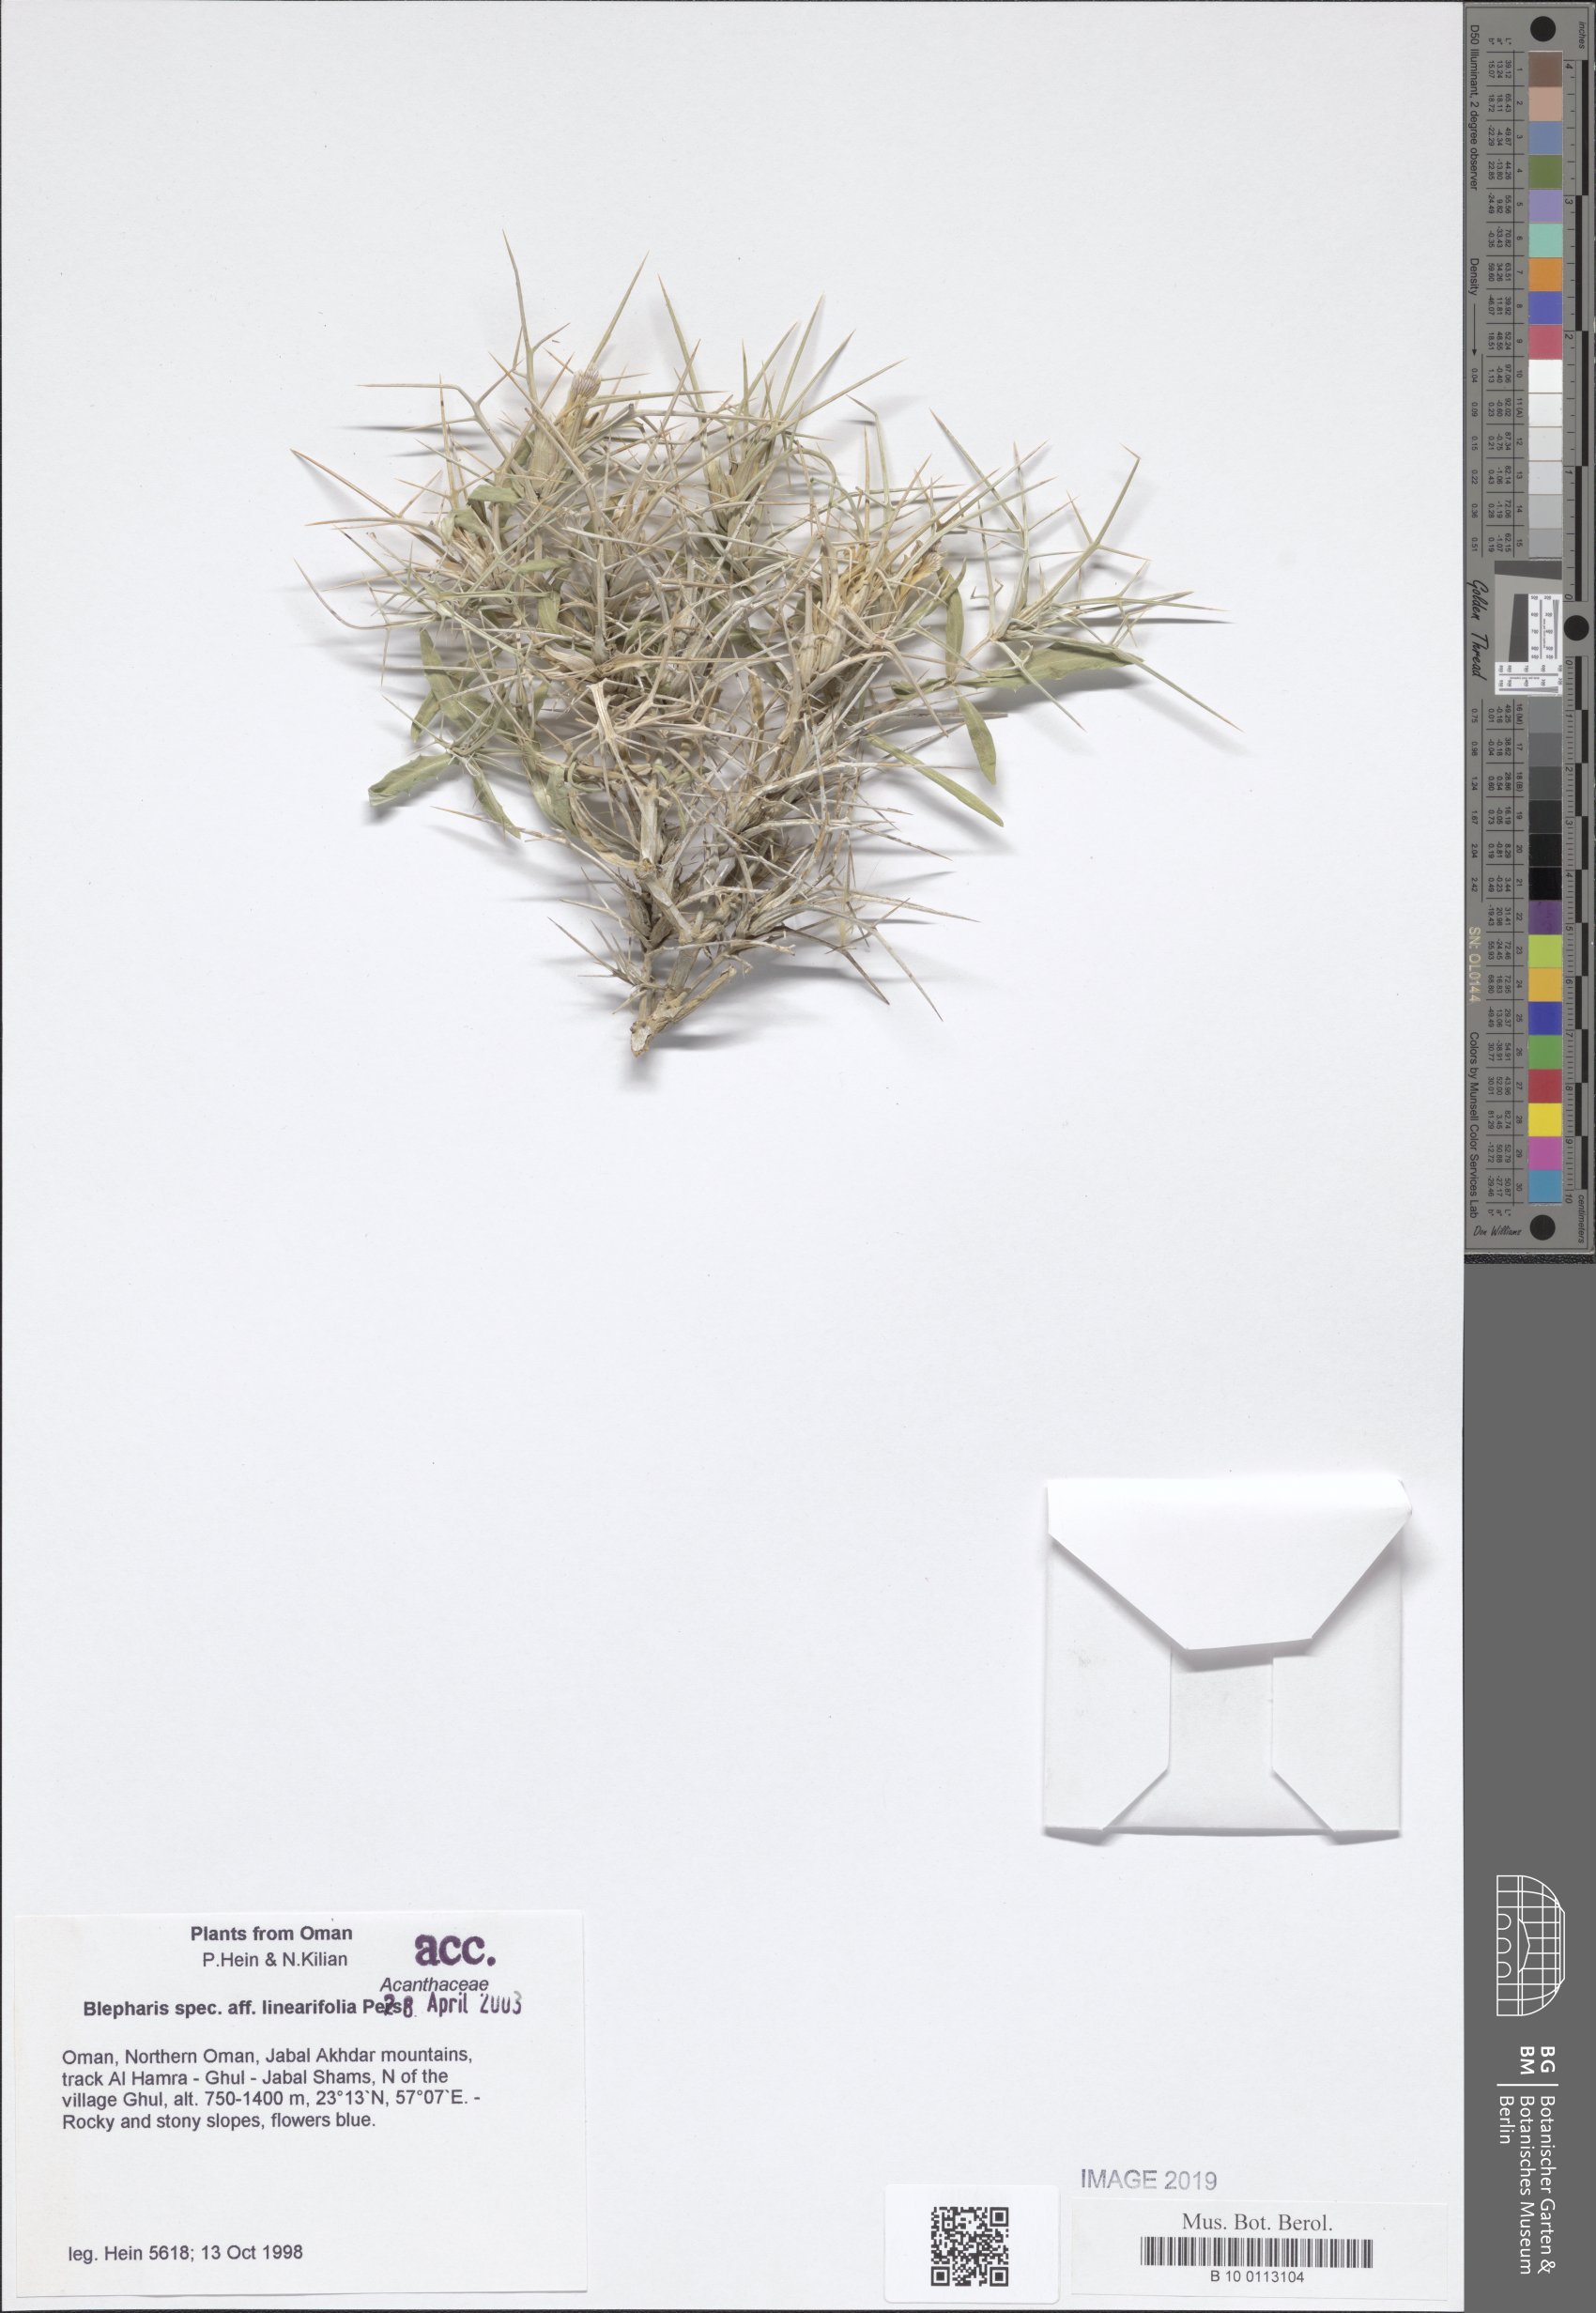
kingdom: Plantae
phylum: Tracheophyta
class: Magnoliopsida
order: Lamiales
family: Acanthaceae
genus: Blepharis
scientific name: Blepharis linariifolia
